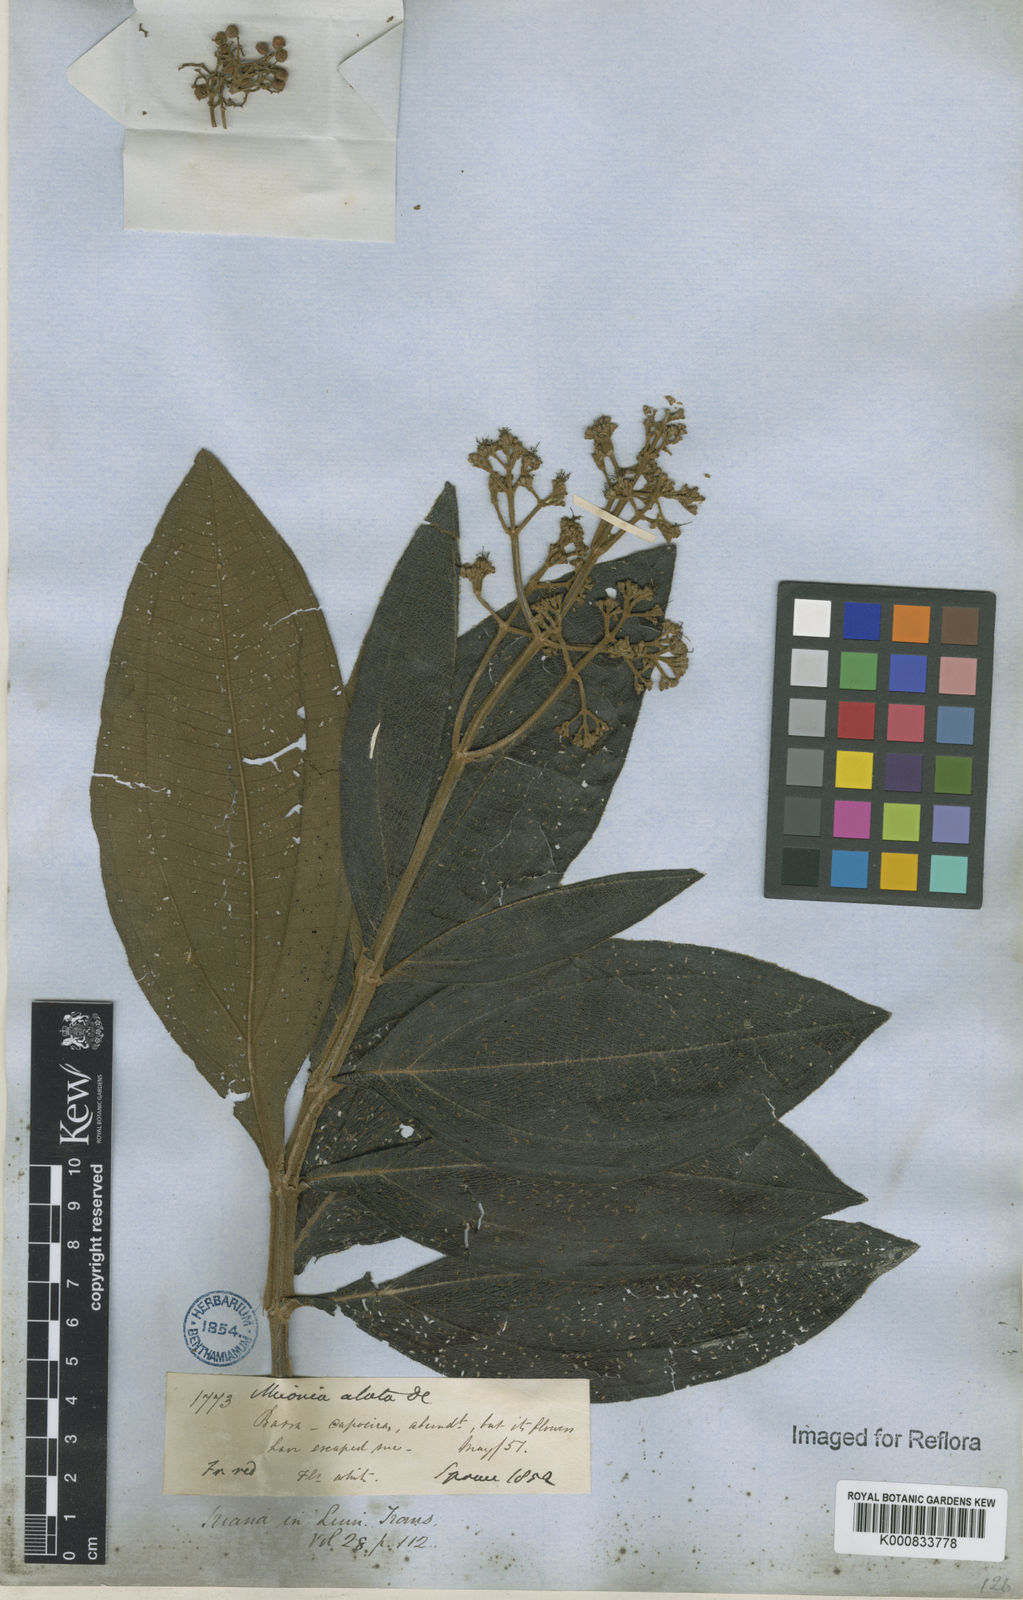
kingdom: Plantae
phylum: Tracheophyta
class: Magnoliopsida
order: Myrtales
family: Melastomataceae
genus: Miconia
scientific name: Miconia alata
